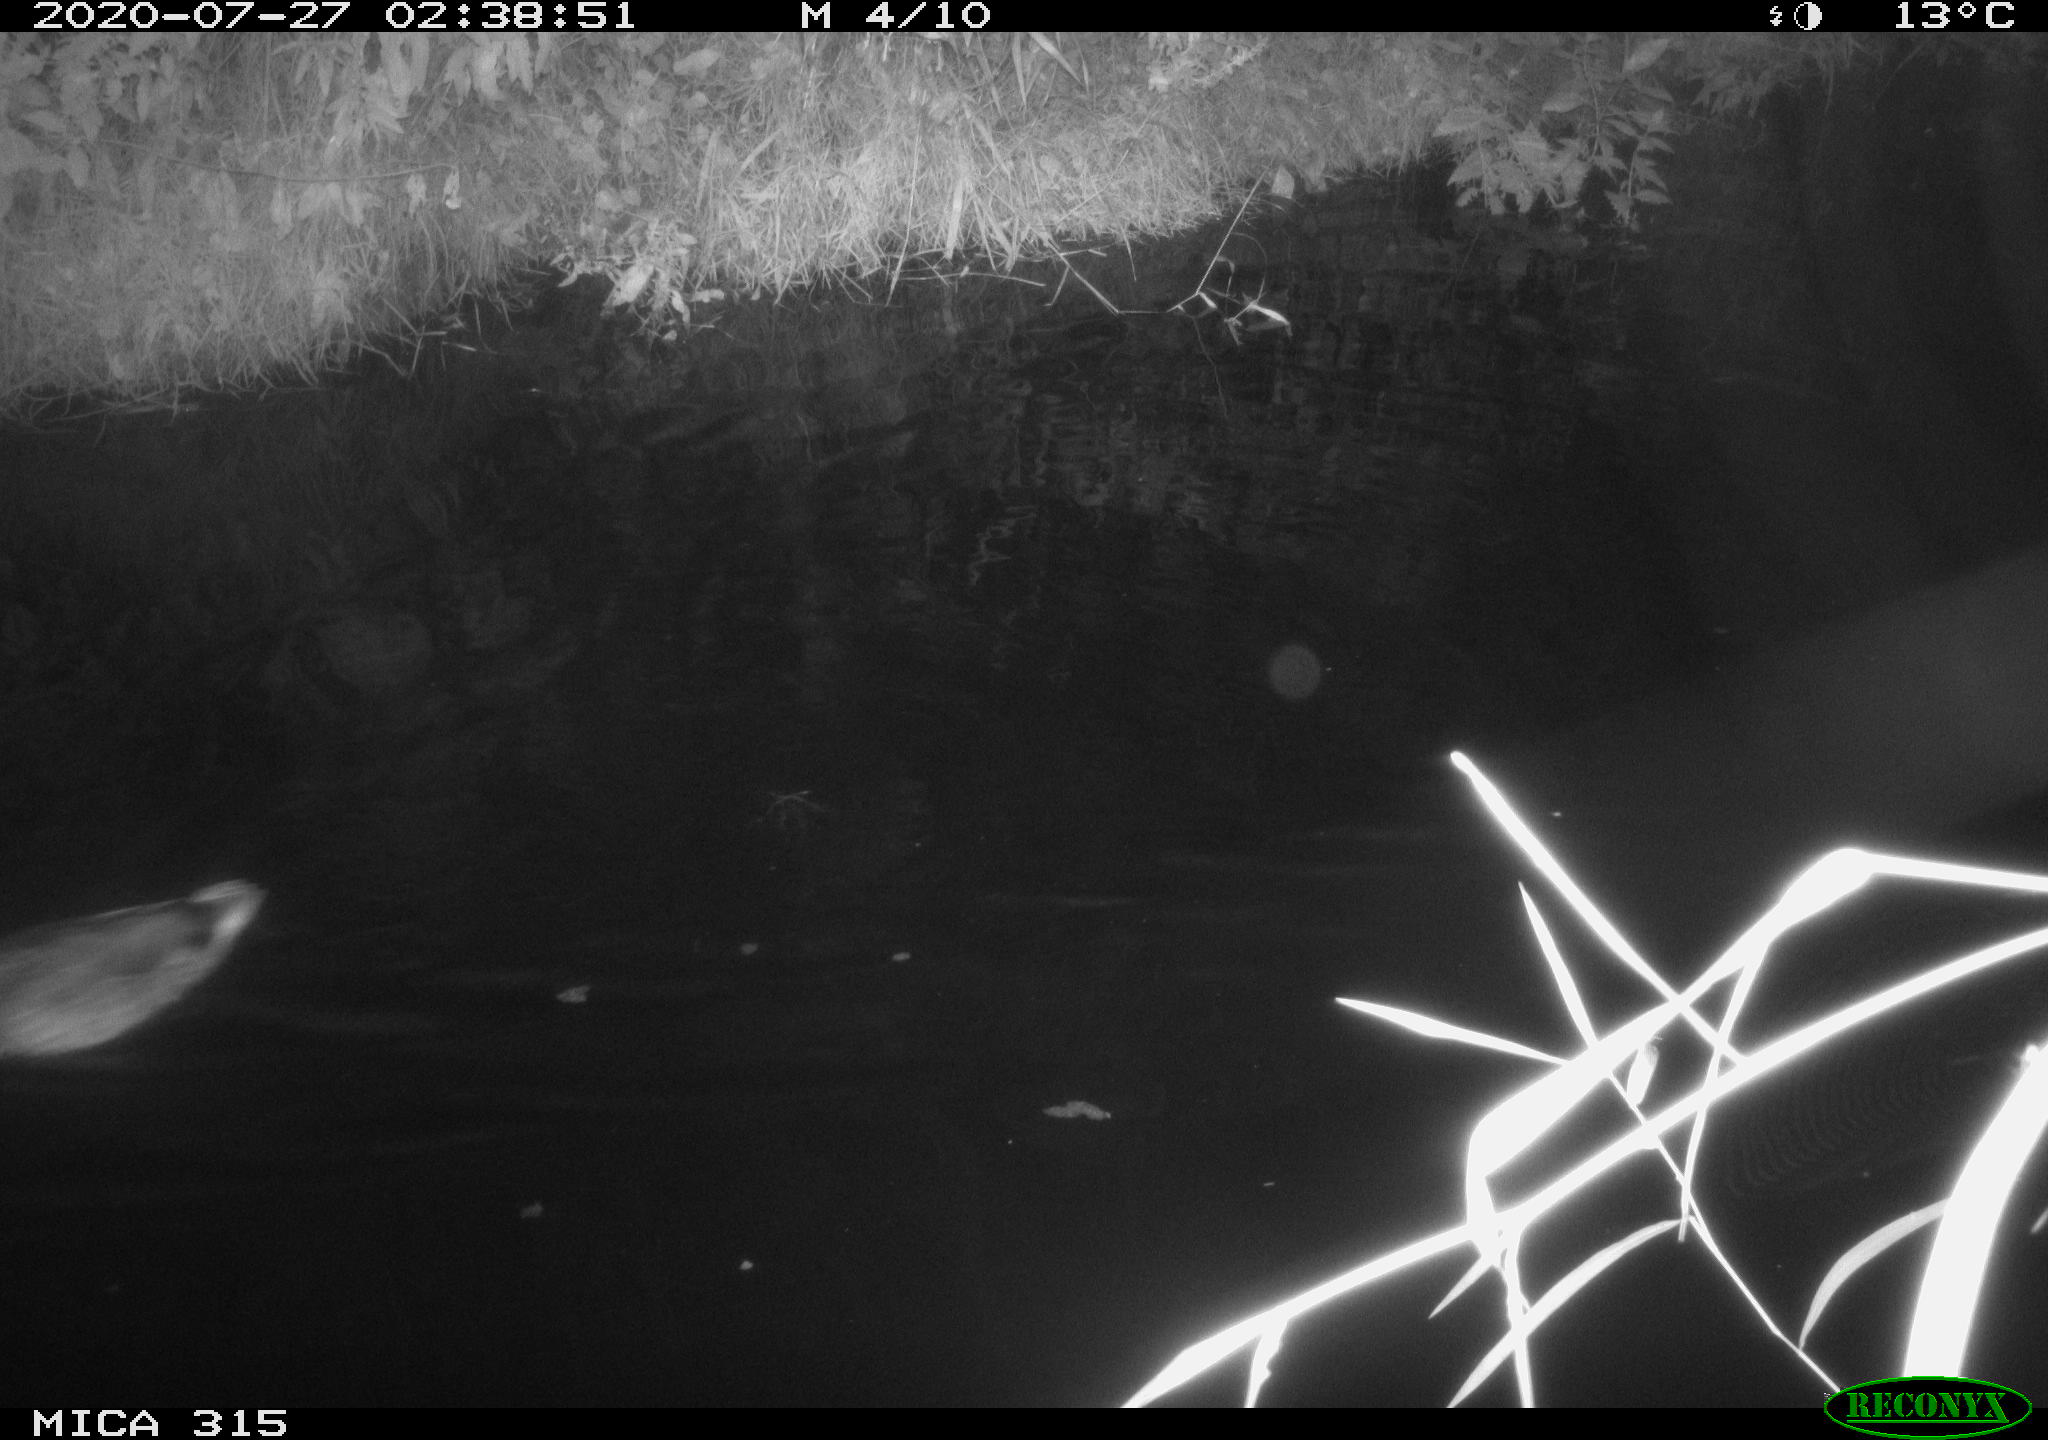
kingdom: Animalia
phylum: Chordata
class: Aves
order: Anseriformes
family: Anatidae
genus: Anas
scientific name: Anas platyrhynchos
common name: Mallard
